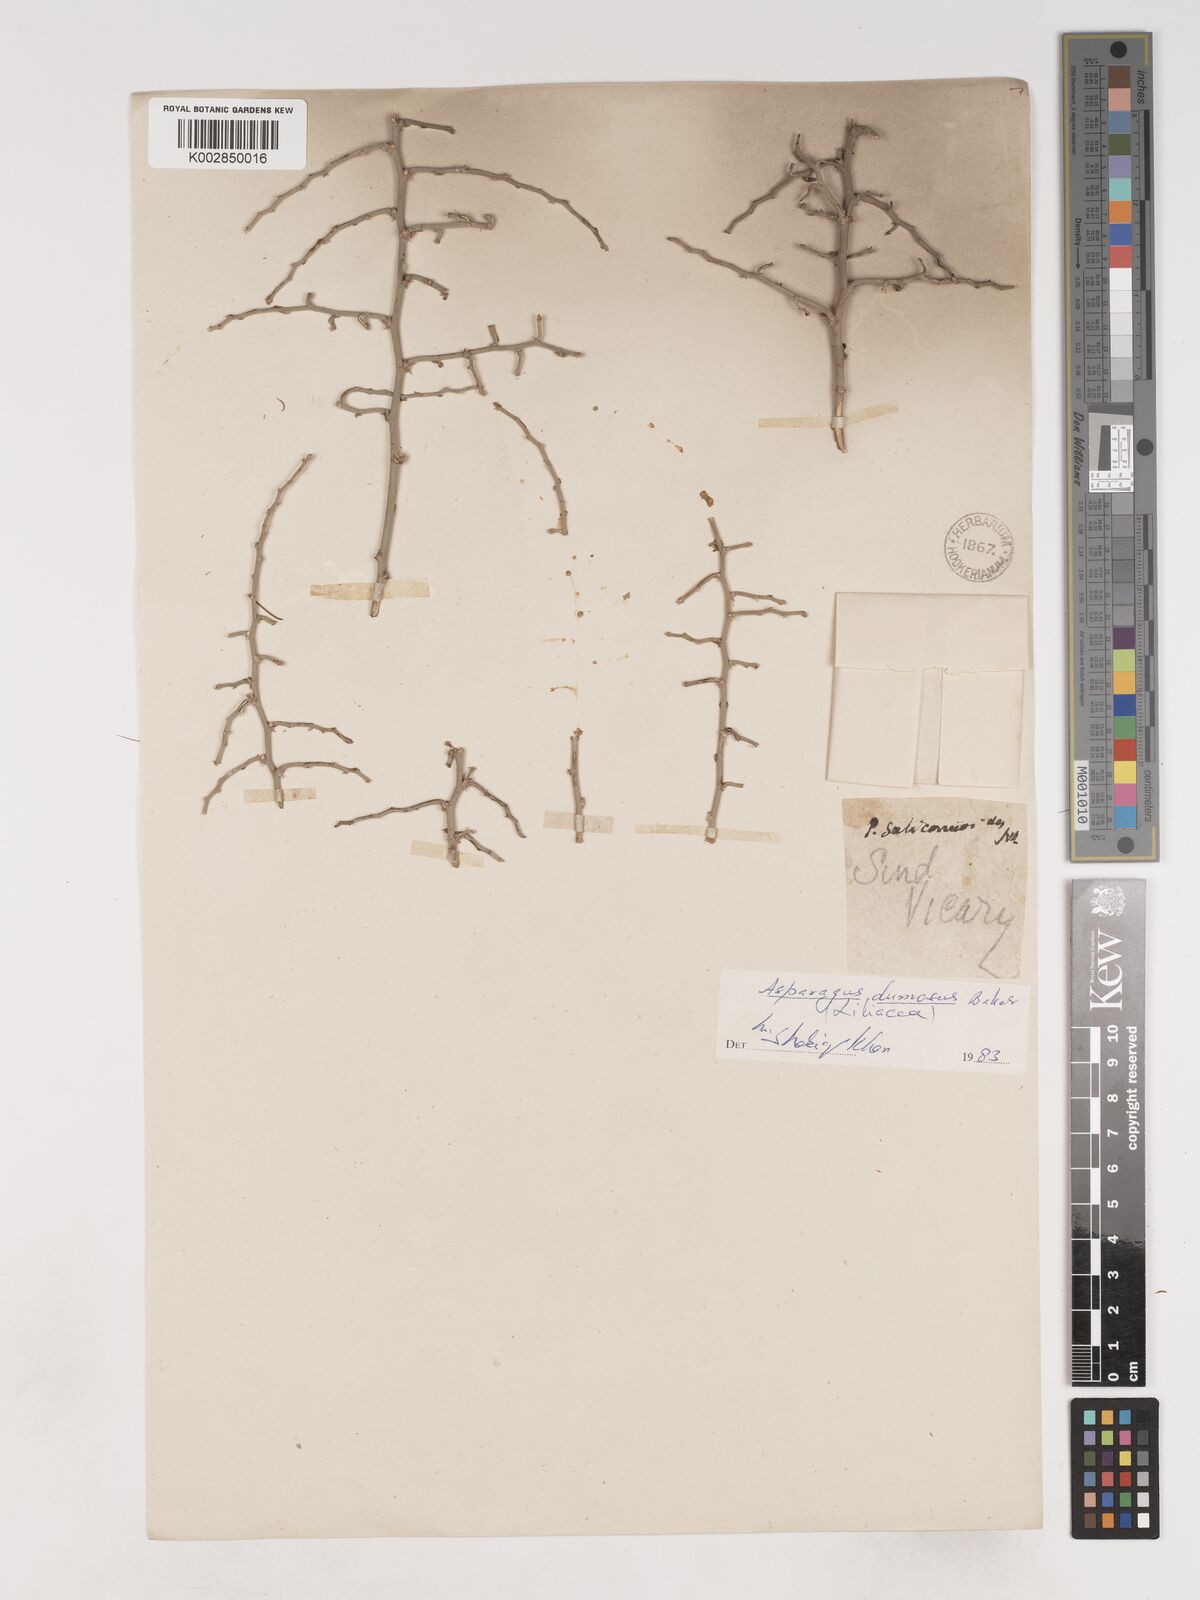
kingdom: Plantae
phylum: Tracheophyta
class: Liliopsida
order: Asparagales
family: Asparagaceae
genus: Asparagus
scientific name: Asparagus dumosus
